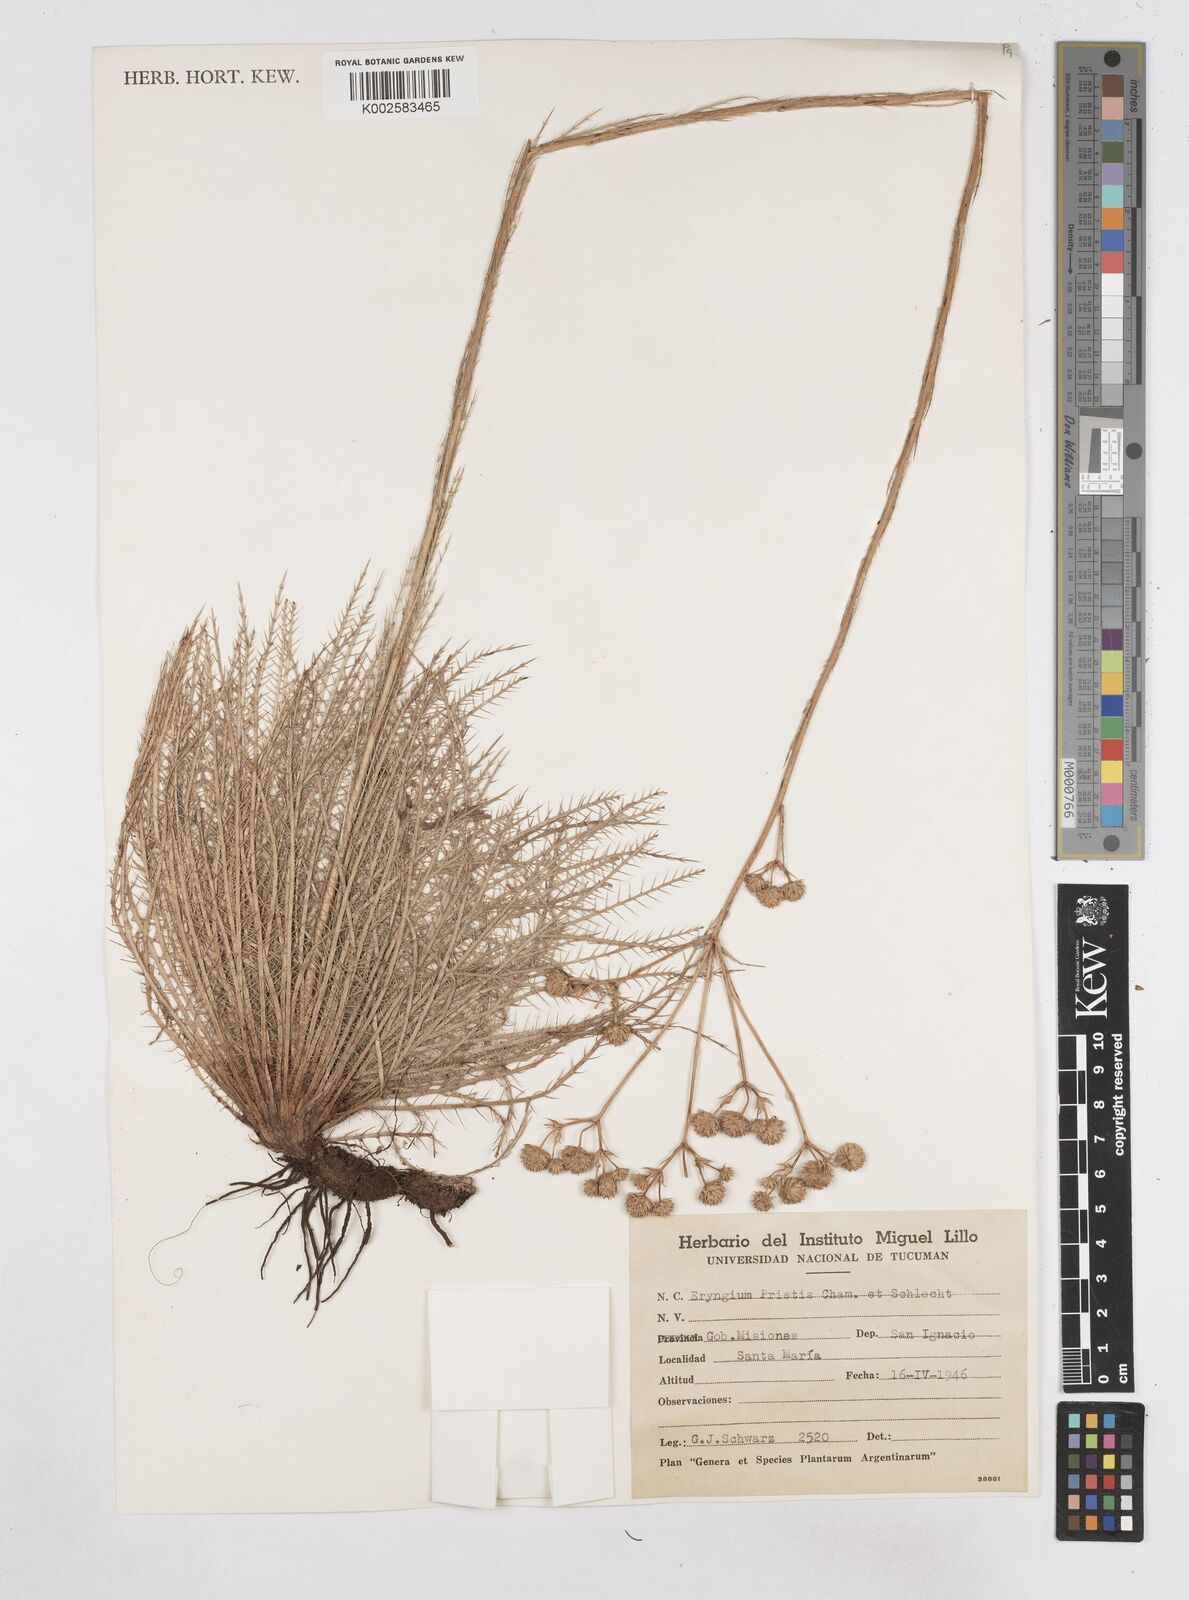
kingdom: Plantae
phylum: Tracheophyta
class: Magnoliopsida
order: Apiales
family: Apiaceae
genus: Eryngium
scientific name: Eryngium pristis
